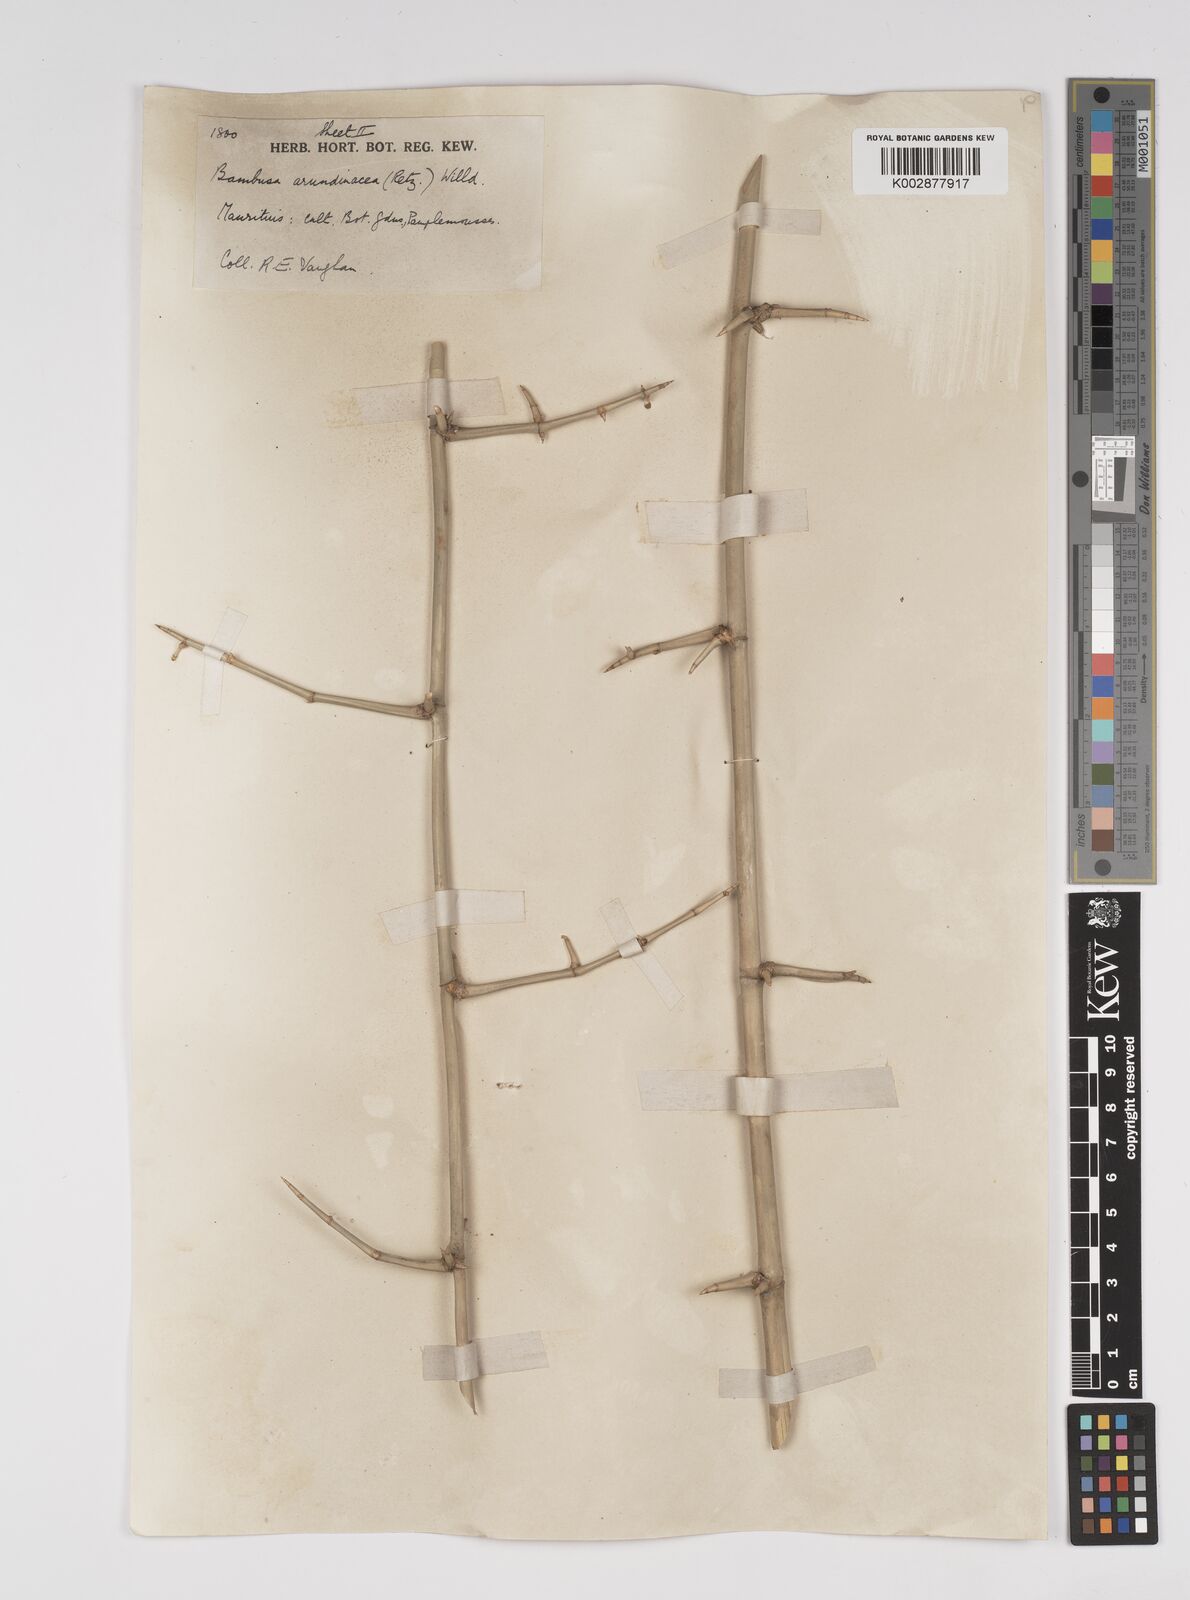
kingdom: Plantae
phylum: Tracheophyta
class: Liliopsida
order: Poales
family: Poaceae
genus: Bambusa
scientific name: Bambusa bambos
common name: Indian thorny bamboo
